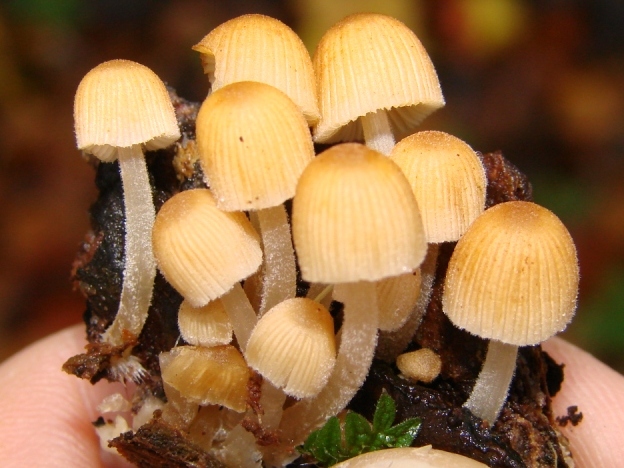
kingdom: Fungi
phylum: Basidiomycota
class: Agaricomycetes
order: Agaricales
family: Psathyrellaceae
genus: Coprinellus
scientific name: Coprinellus disseminatus
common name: bredsået blækhat
